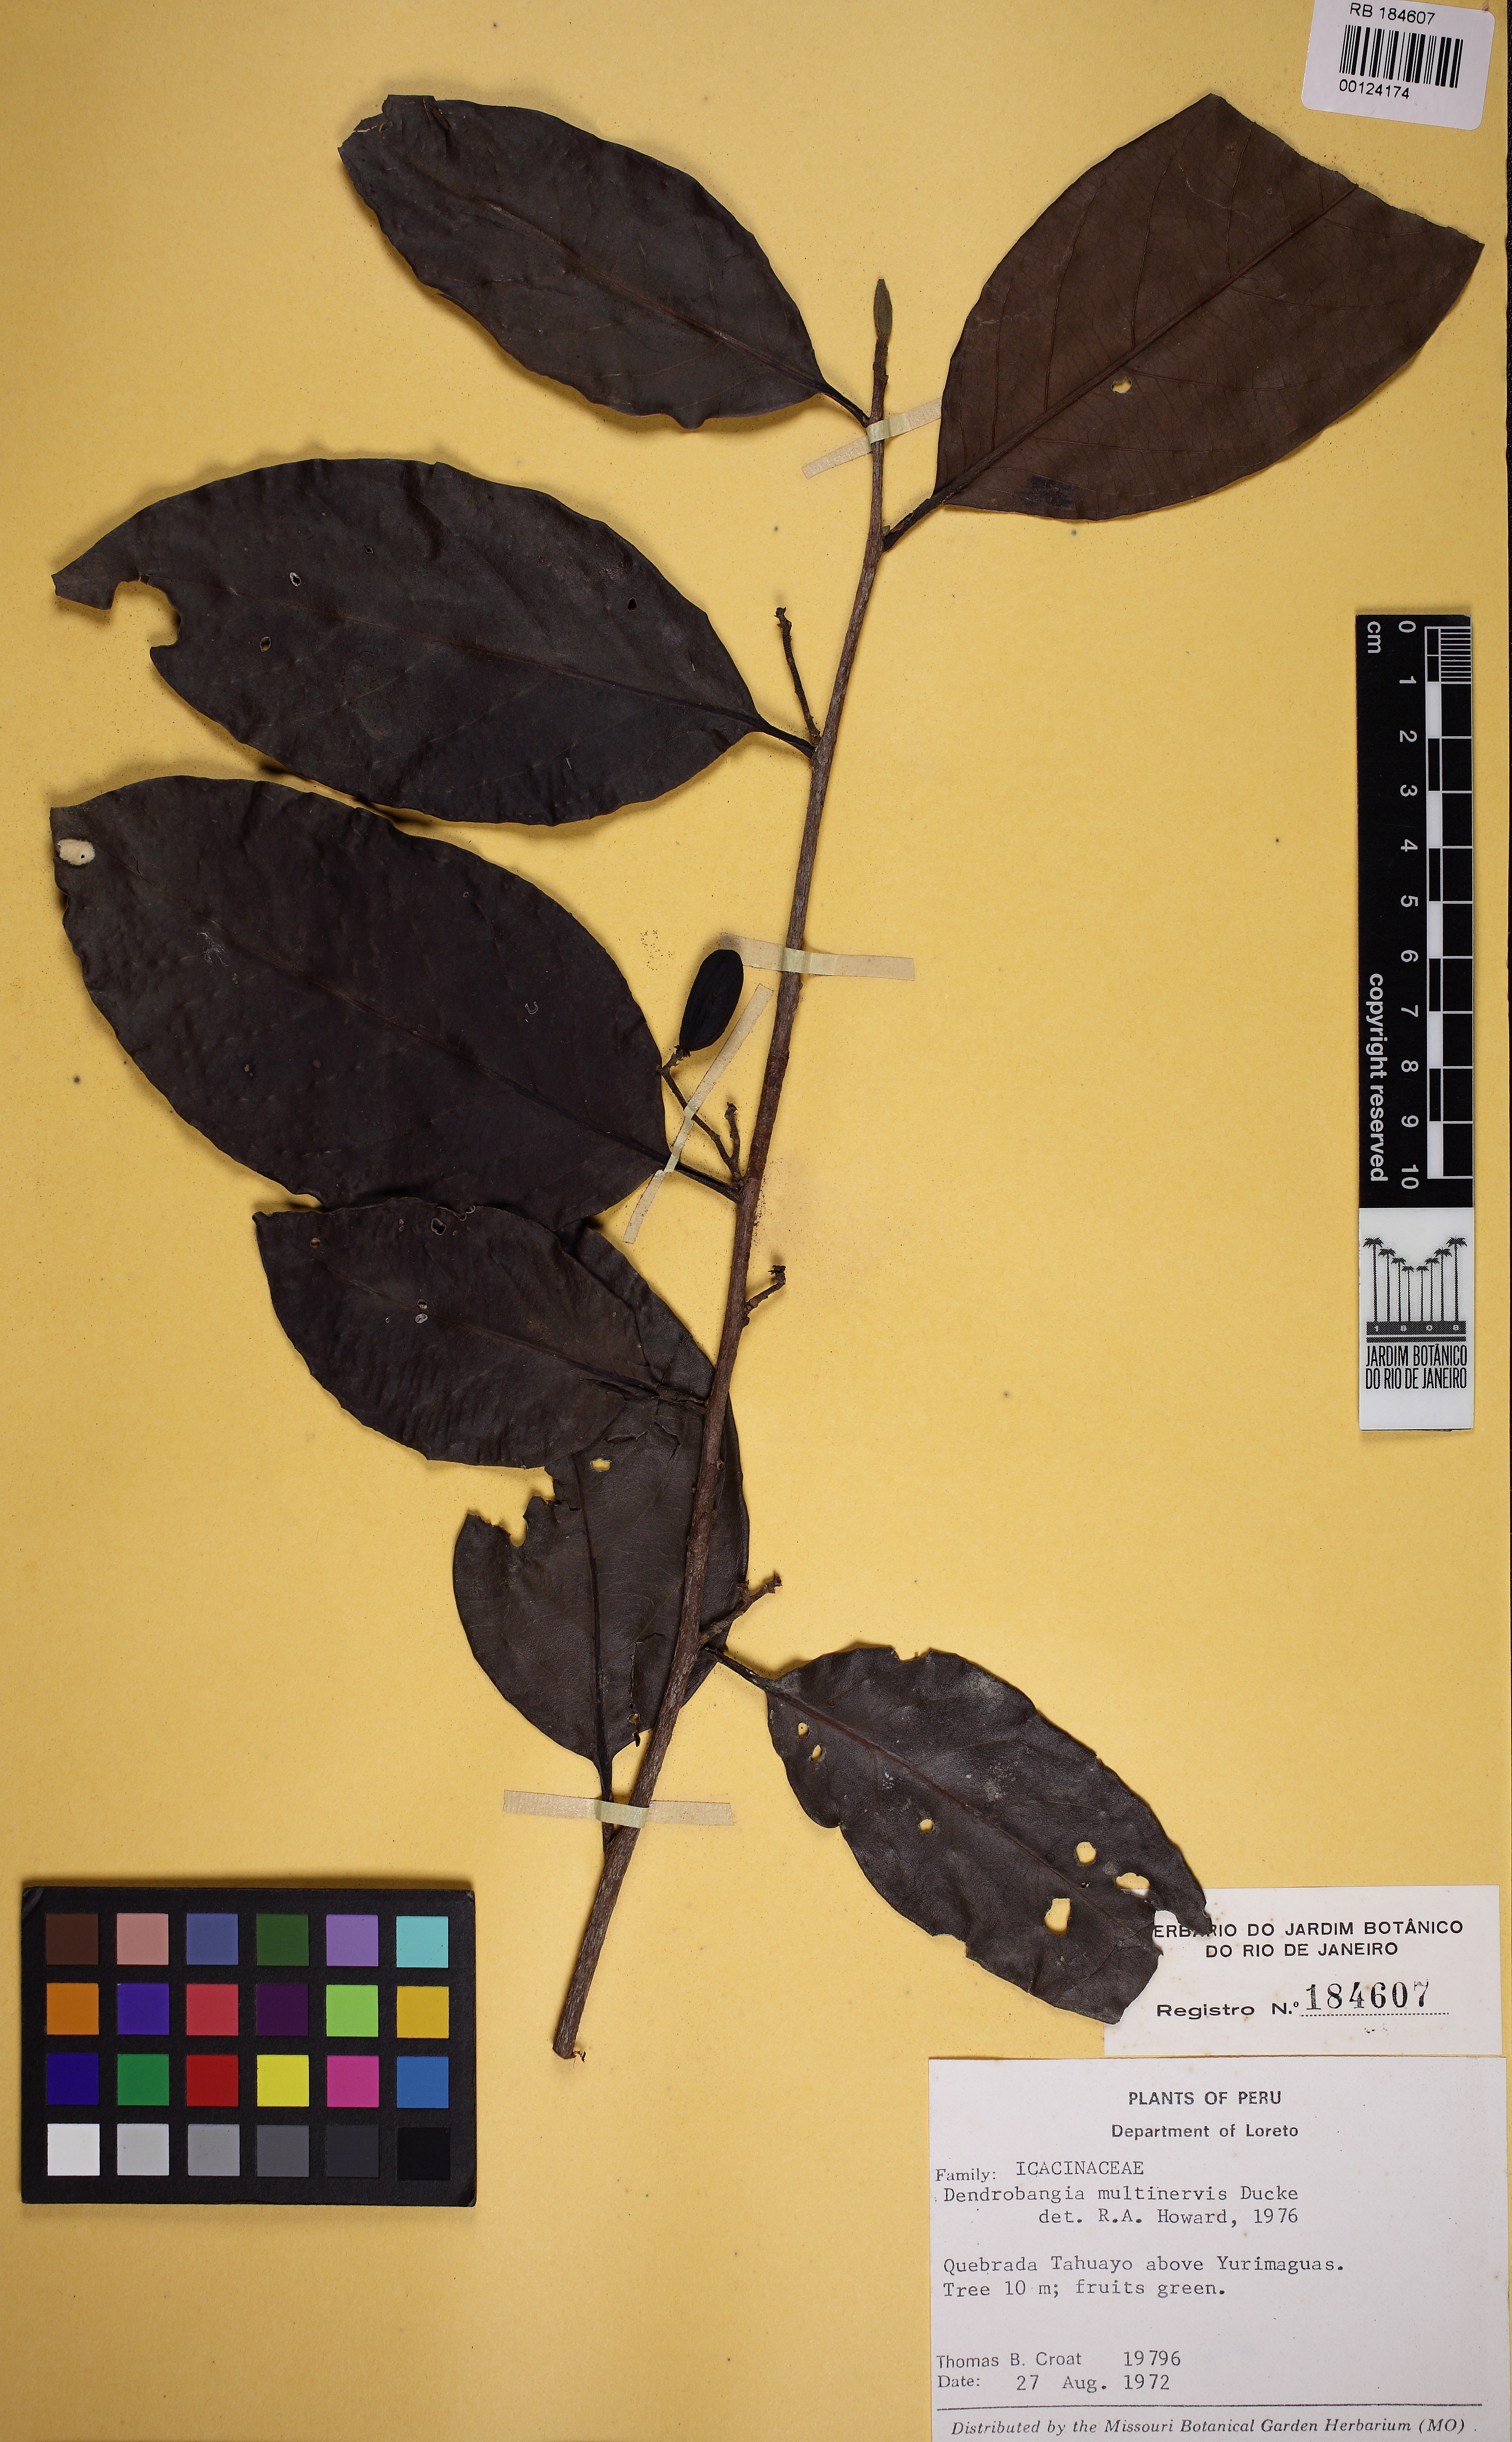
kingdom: Plantae
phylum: Tracheophyta
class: Magnoliopsida
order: Metteniusales
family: Metteniusaceae
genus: Dendrobangia
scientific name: Dendrobangia multinervia
